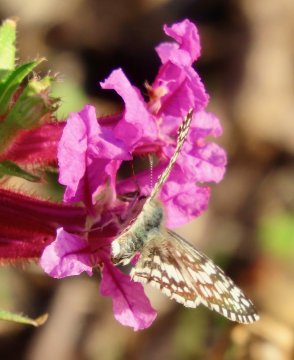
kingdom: Animalia
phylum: Arthropoda
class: Insecta
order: Lepidoptera
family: Hesperiidae
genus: Pyrgus
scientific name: Pyrgus communis
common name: Common Checkered-Skipper
